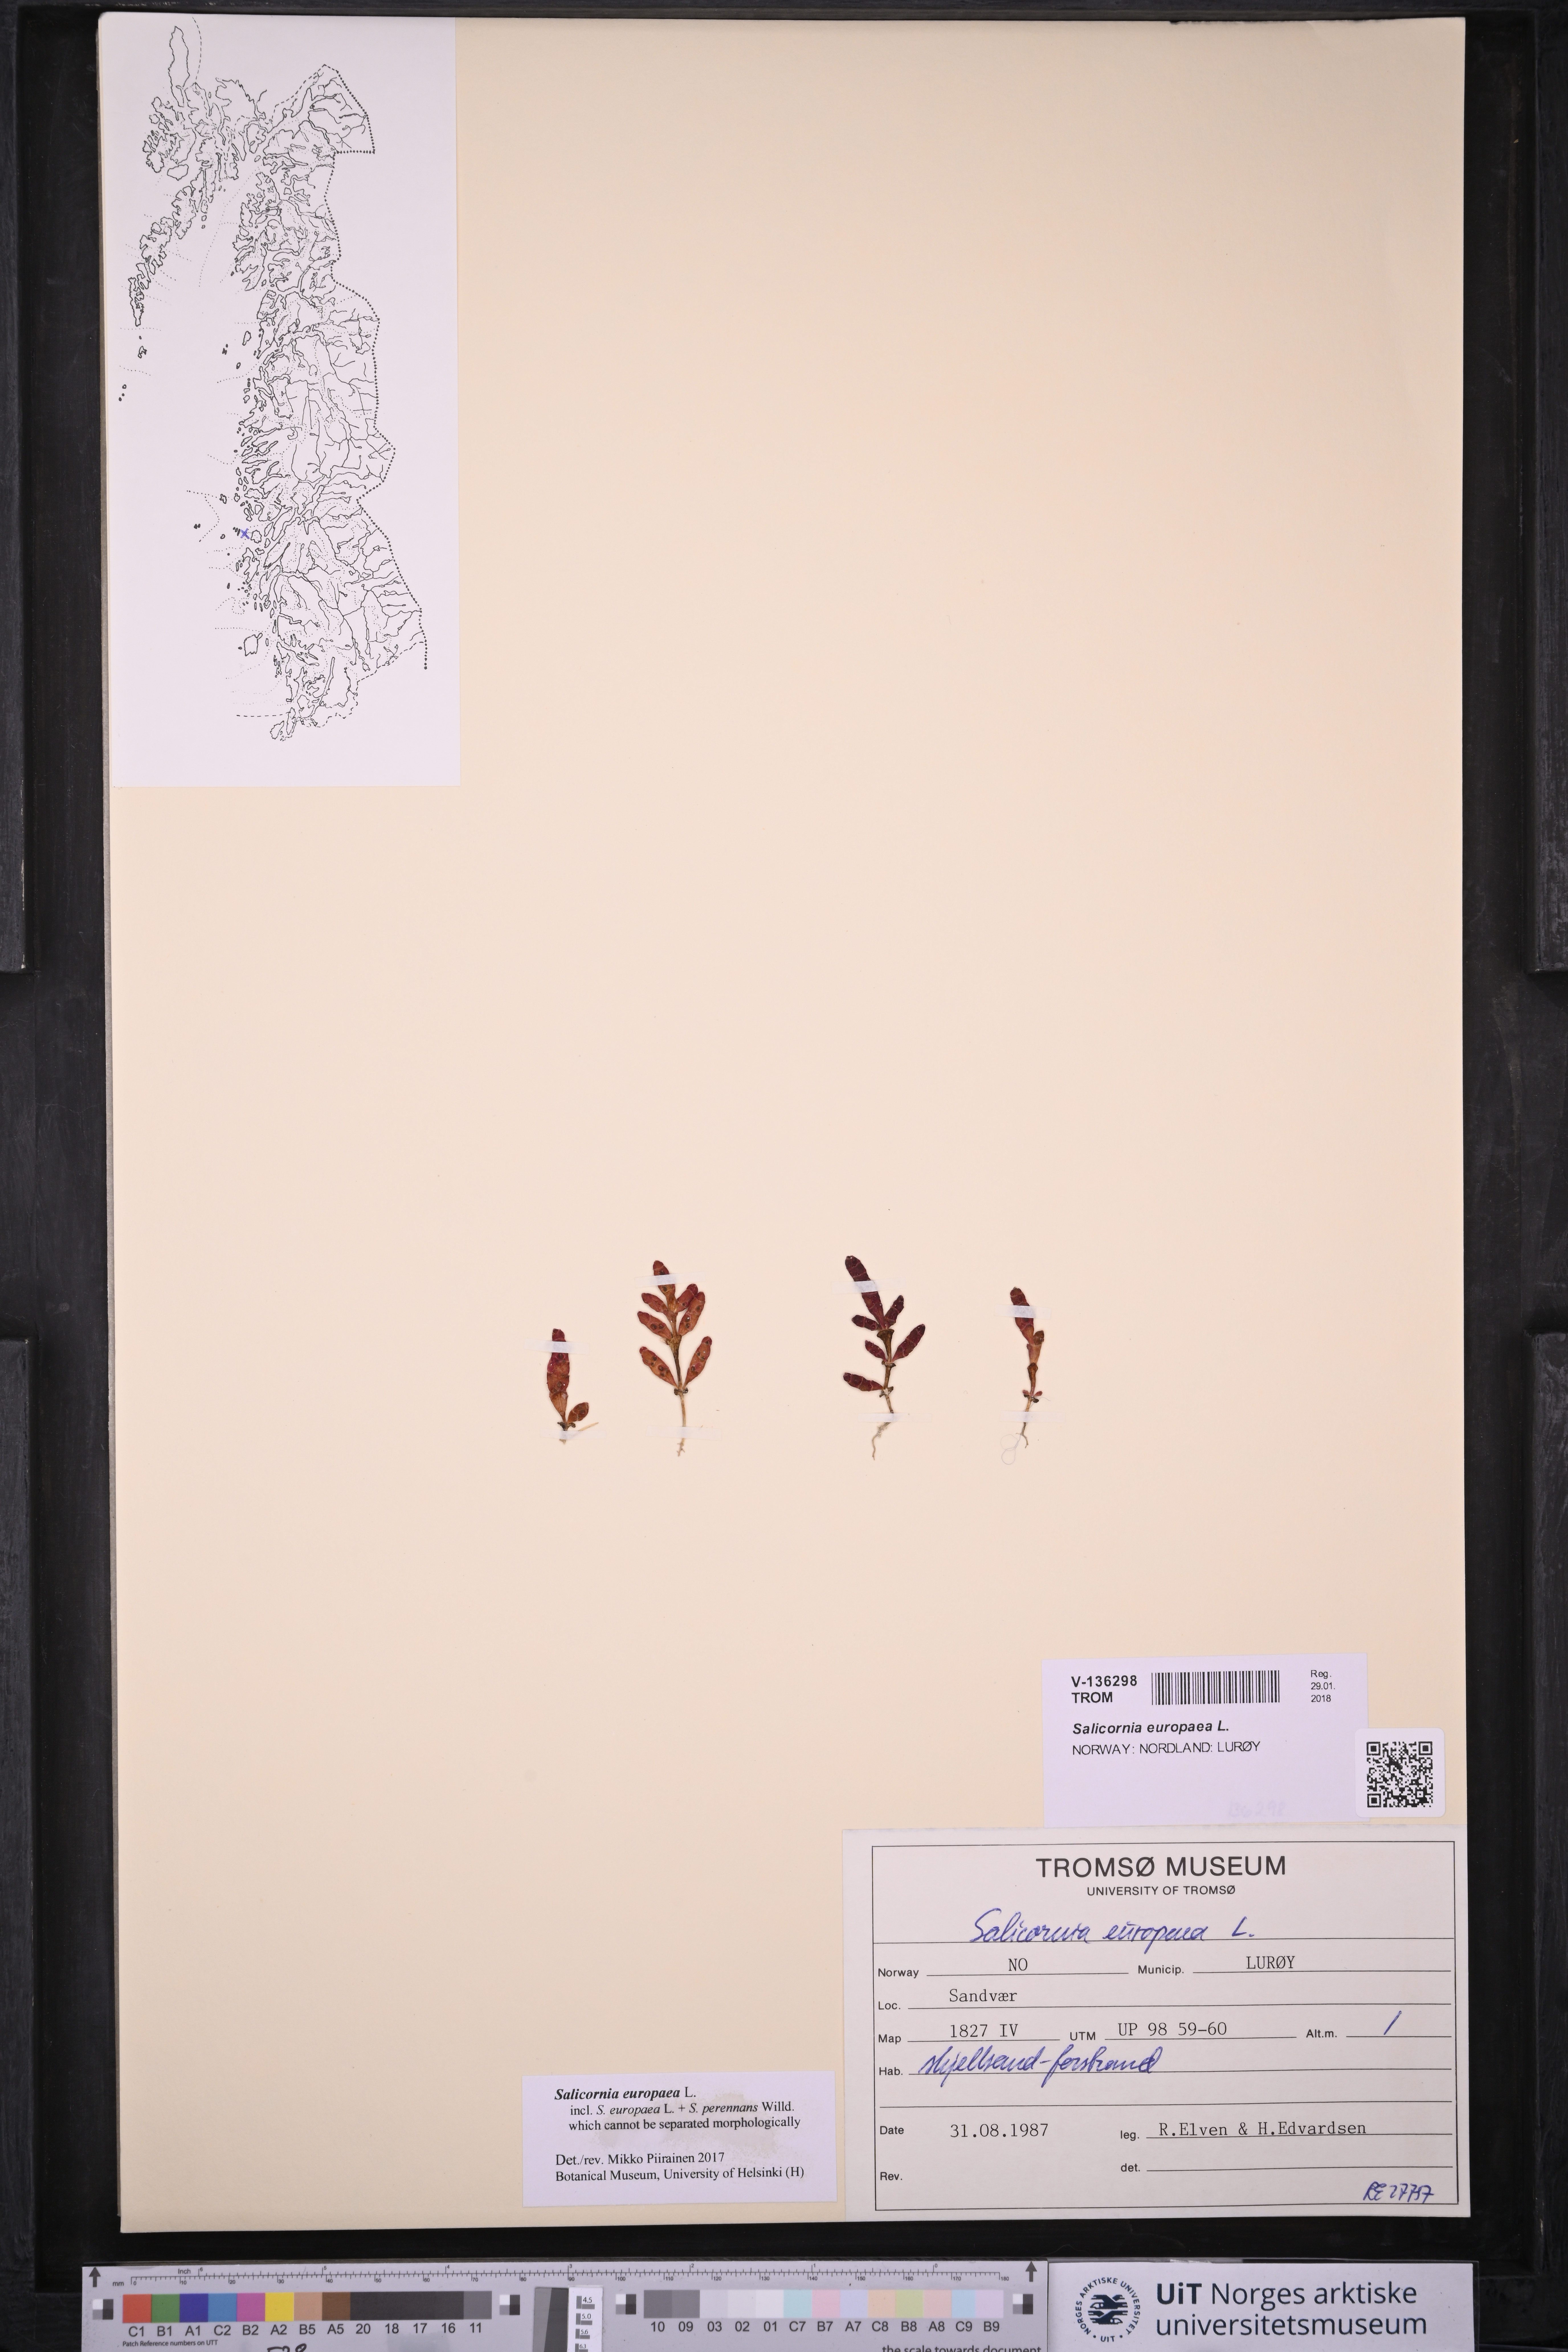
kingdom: Plantae
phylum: Tracheophyta
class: Magnoliopsida
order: Caryophyllales
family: Amaranthaceae
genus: Salicornia
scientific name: Salicornia europaea
